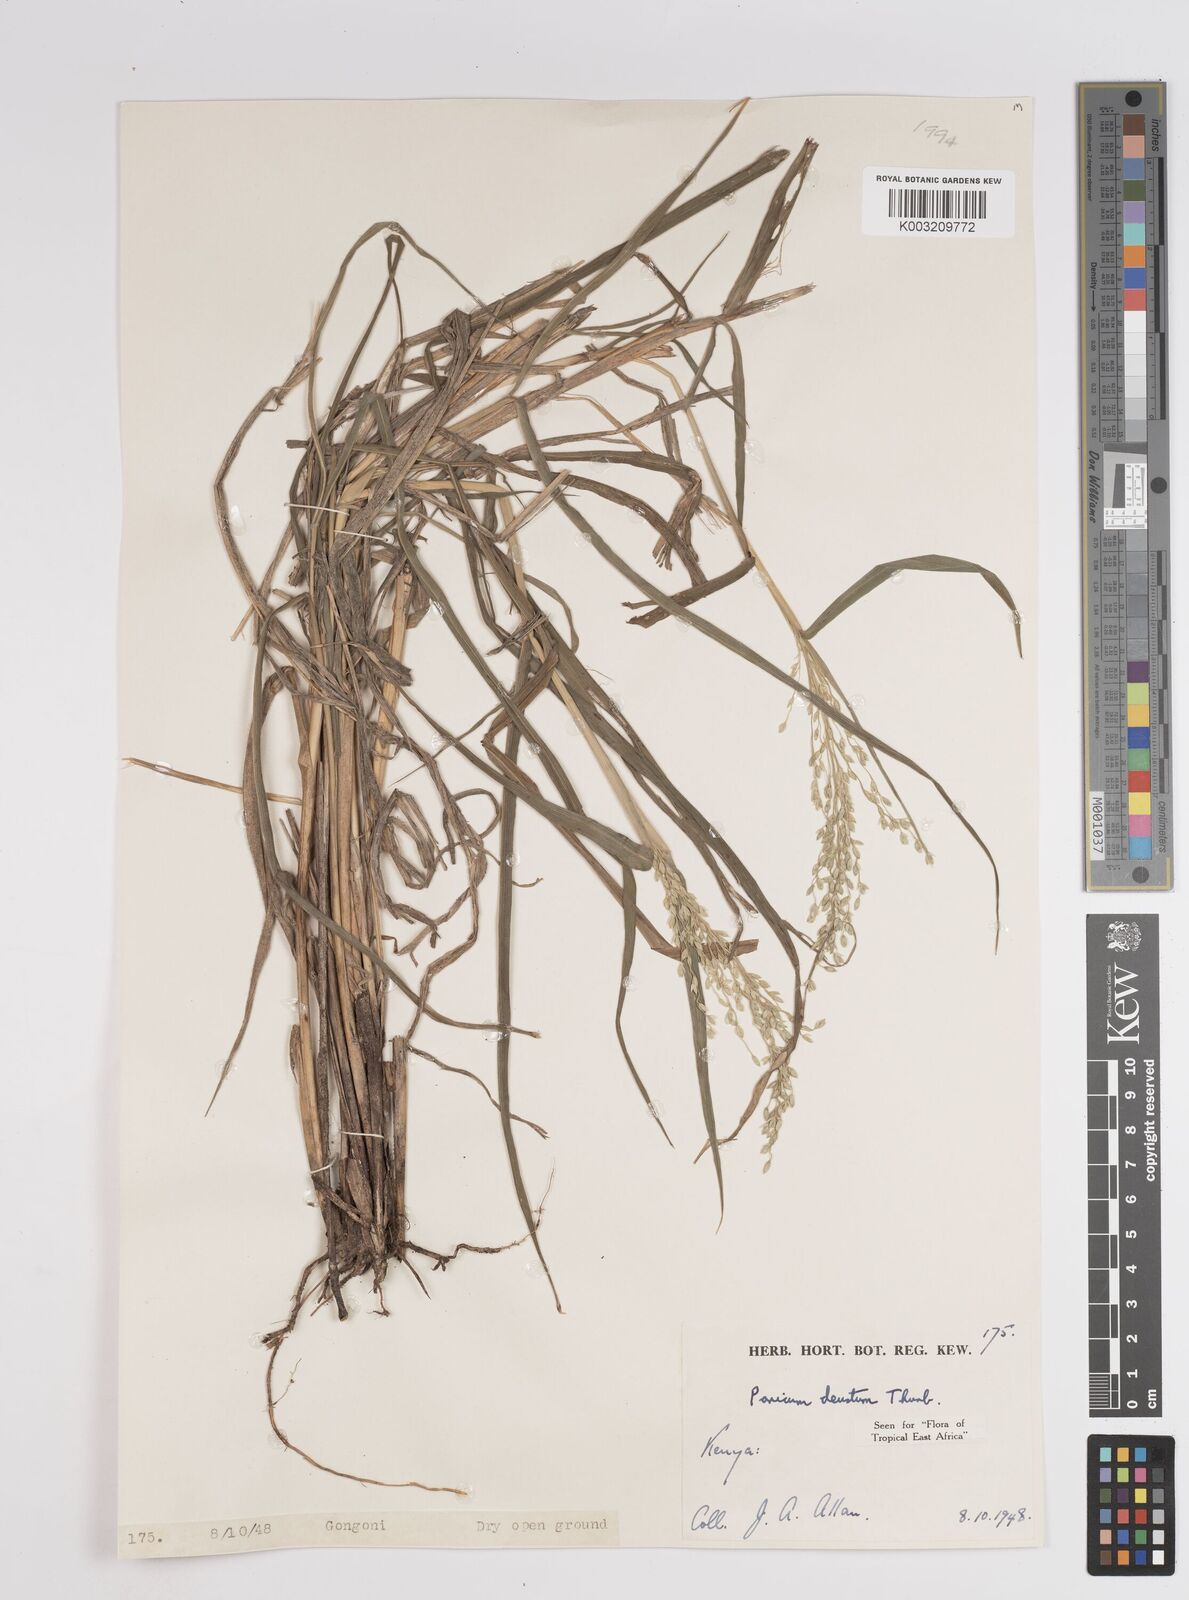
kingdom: Plantae
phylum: Tracheophyta
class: Liliopsida
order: Poales
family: Poaceae
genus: Panicum
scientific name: Panicum
